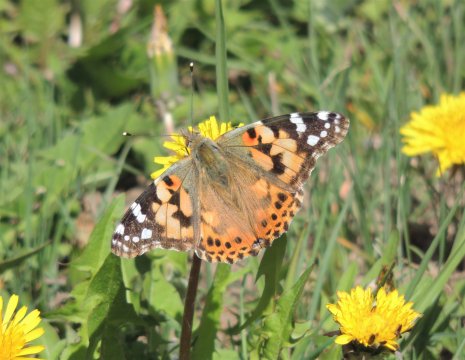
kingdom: Animalia
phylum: Arthropoda
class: Insecta
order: Lepidoptera
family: Nymphalidae
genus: Vanessa
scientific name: Vanessa cardui
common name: Painted Lady
